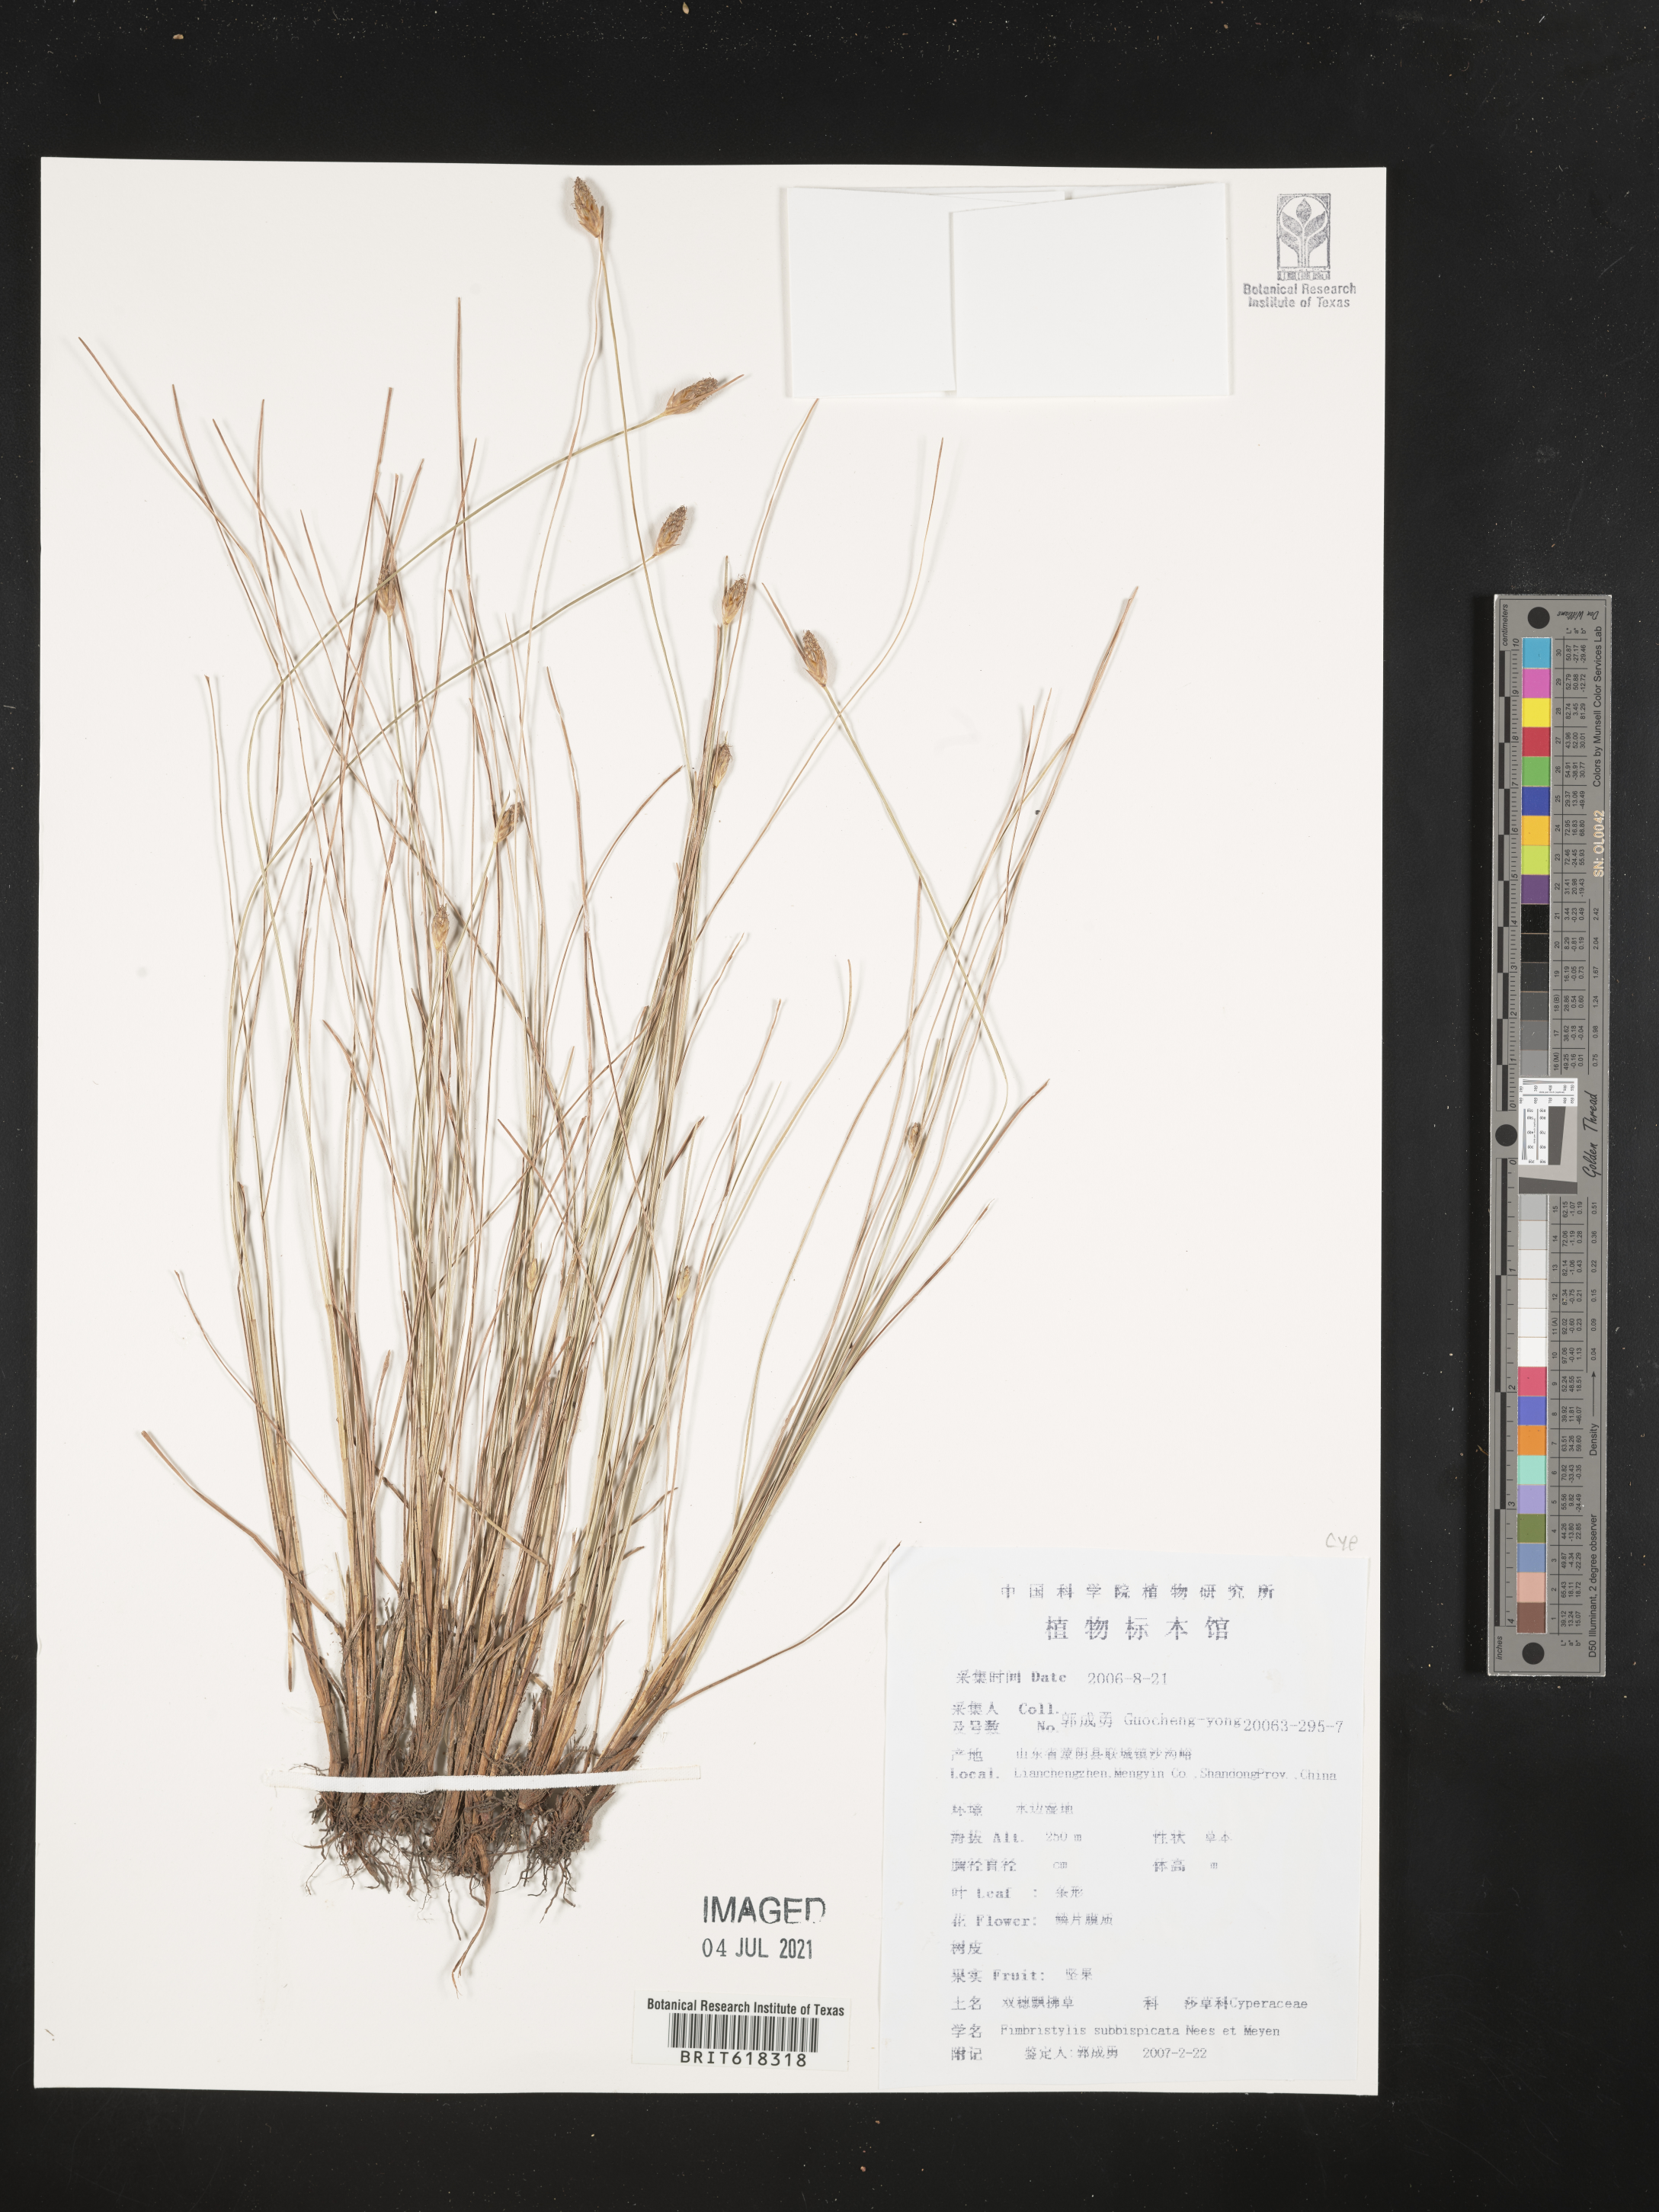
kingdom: Plantae
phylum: Tracheophyta
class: Liliopsida
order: Poales
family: Cyperaceae
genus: Fimbristylis
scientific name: Fimbristylis tristachya
